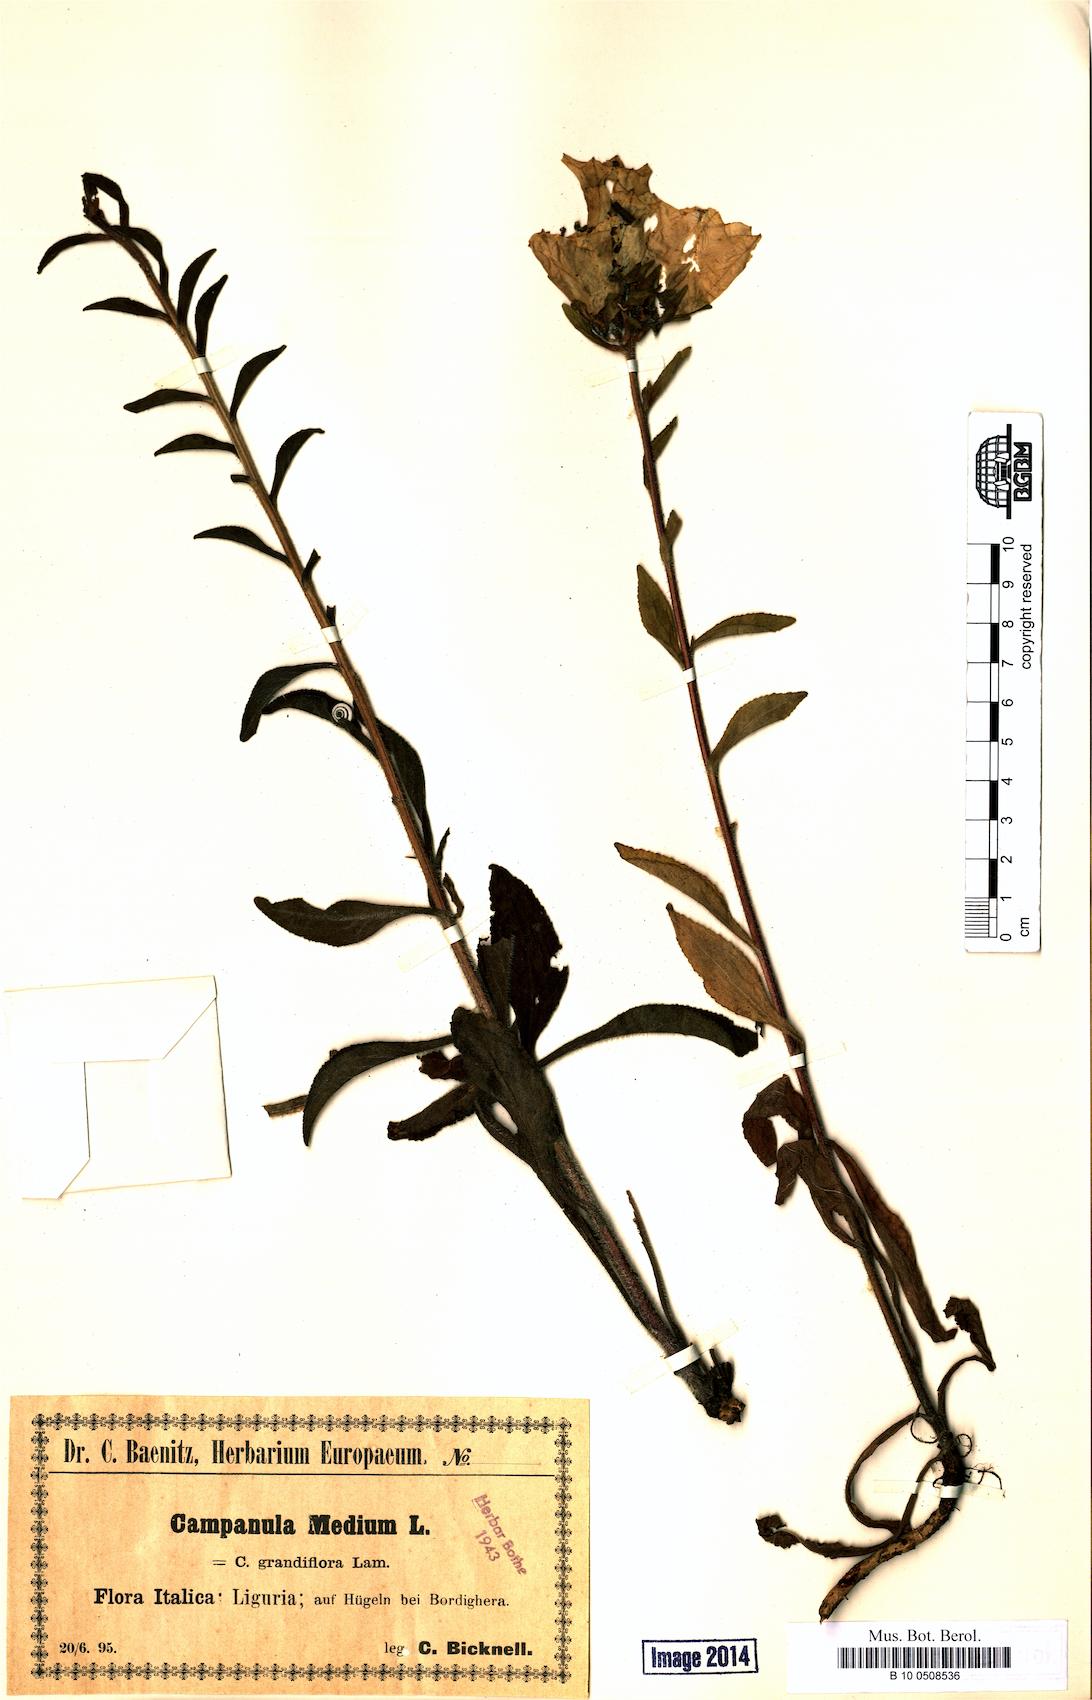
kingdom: Plantae
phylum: Tracheophyta
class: Magnoliopsida
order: Asterales
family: Campanulaceae
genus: Campanula
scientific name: Campanula medium
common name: Canterbury bells
